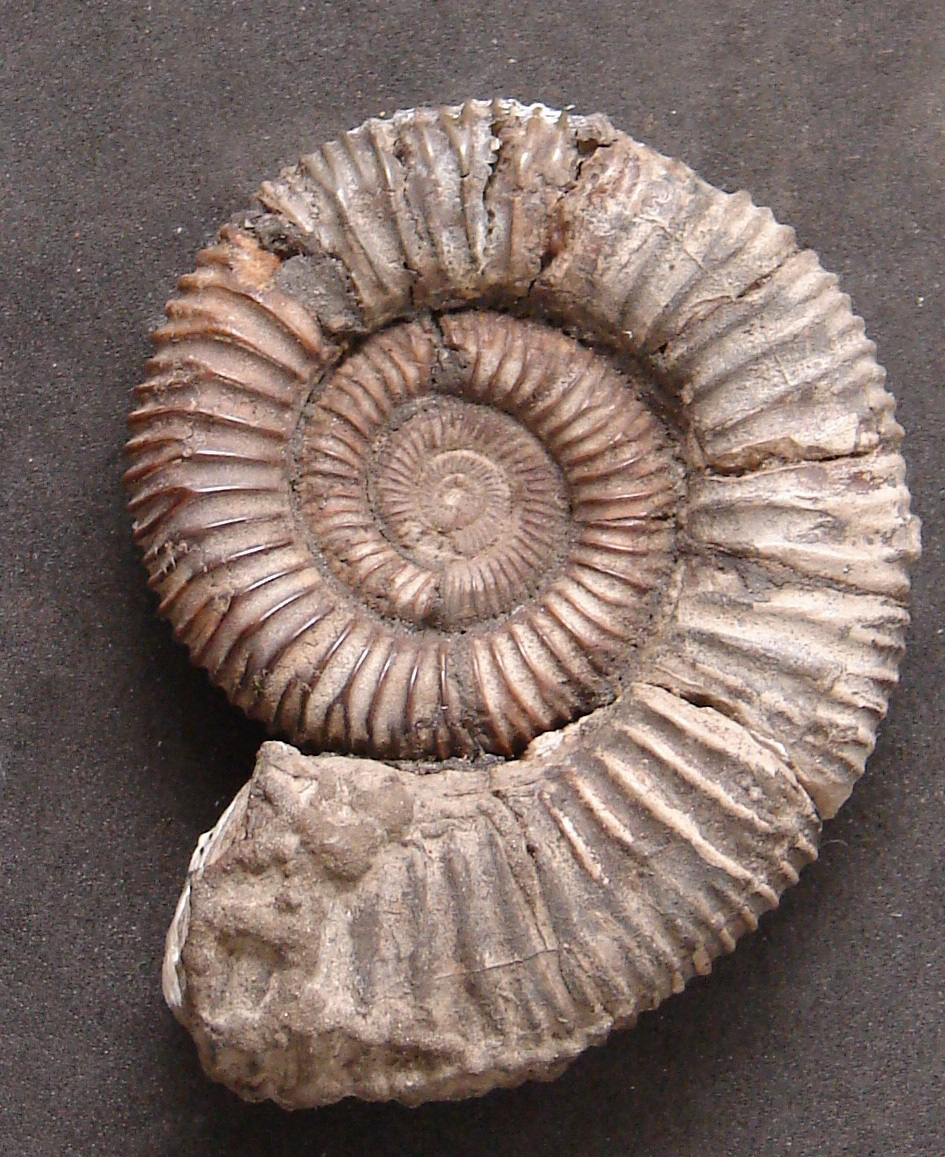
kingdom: Animalia
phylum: Mollusca
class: Cephalopoda
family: Dactylioceratidae
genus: Dactylioceras
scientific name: Dactylioceras commune
